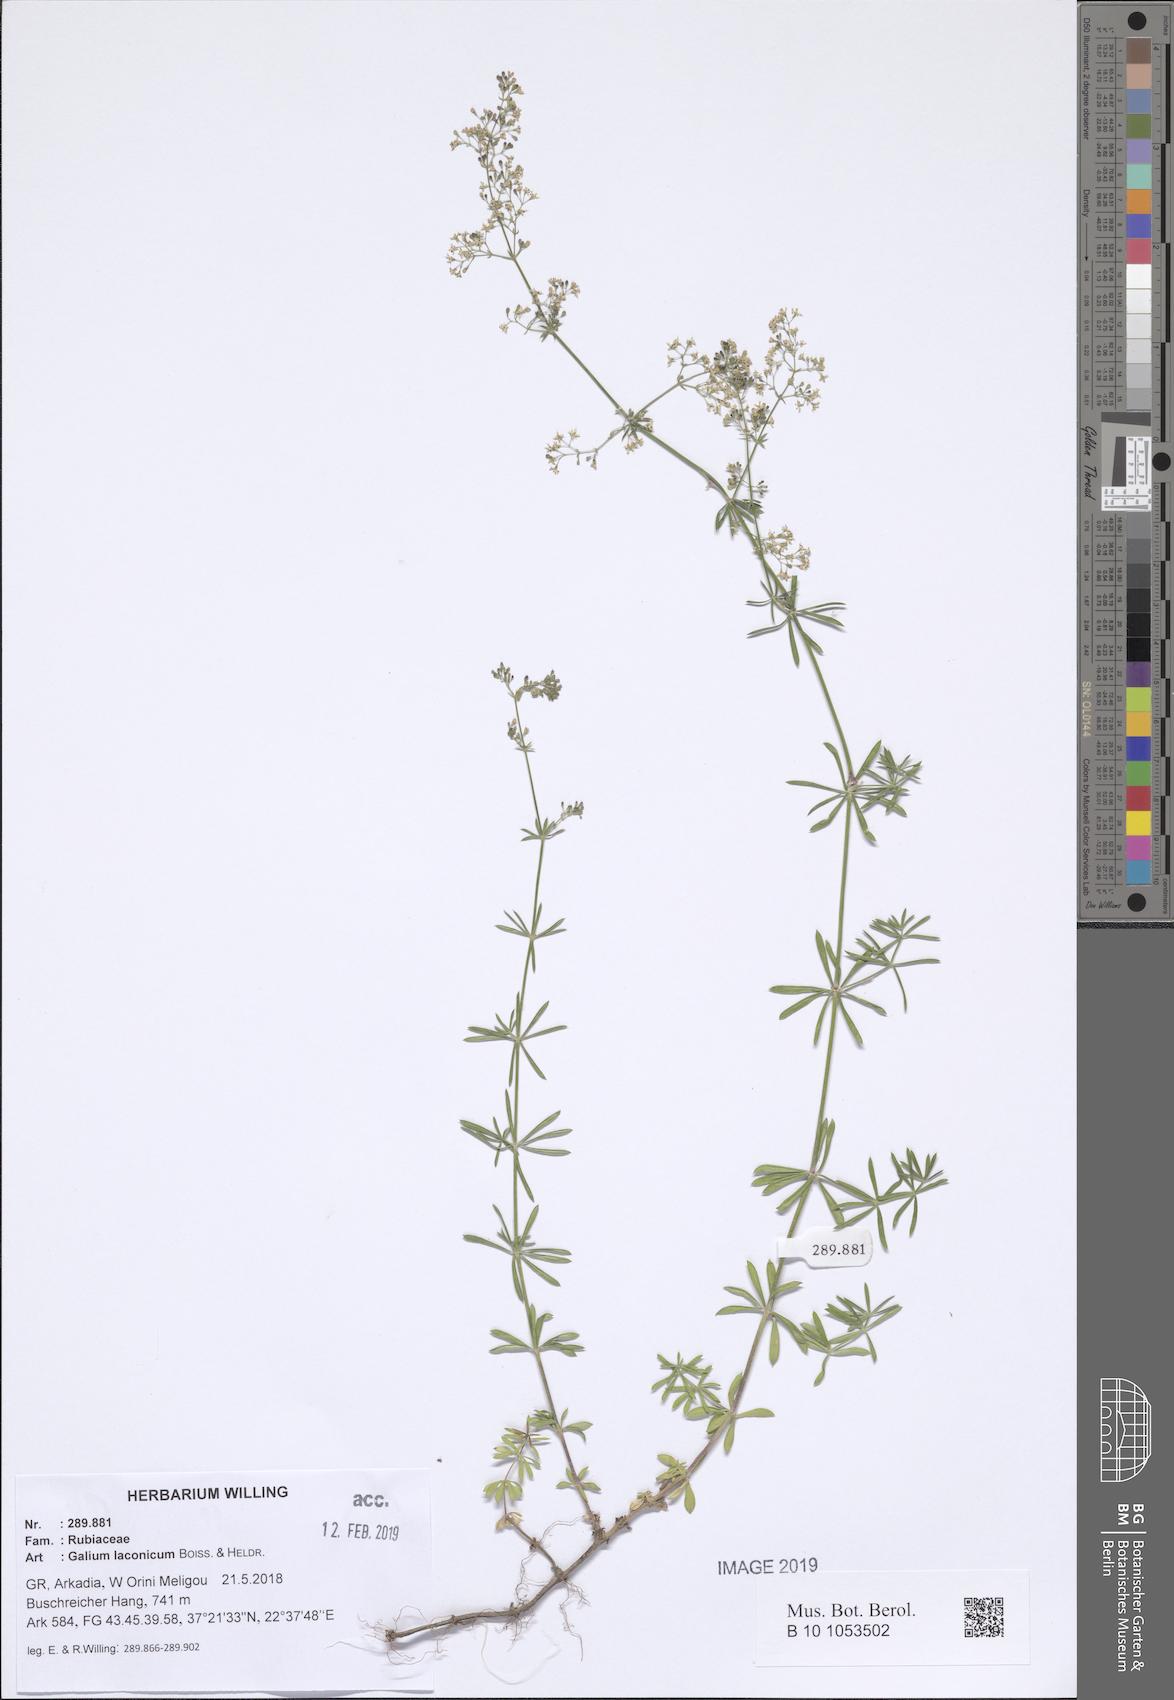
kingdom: Plantae
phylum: Tracheophyta
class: Magnoliopsida
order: Gentianales
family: Rubiaceae
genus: Galium
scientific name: Galium laconicum
